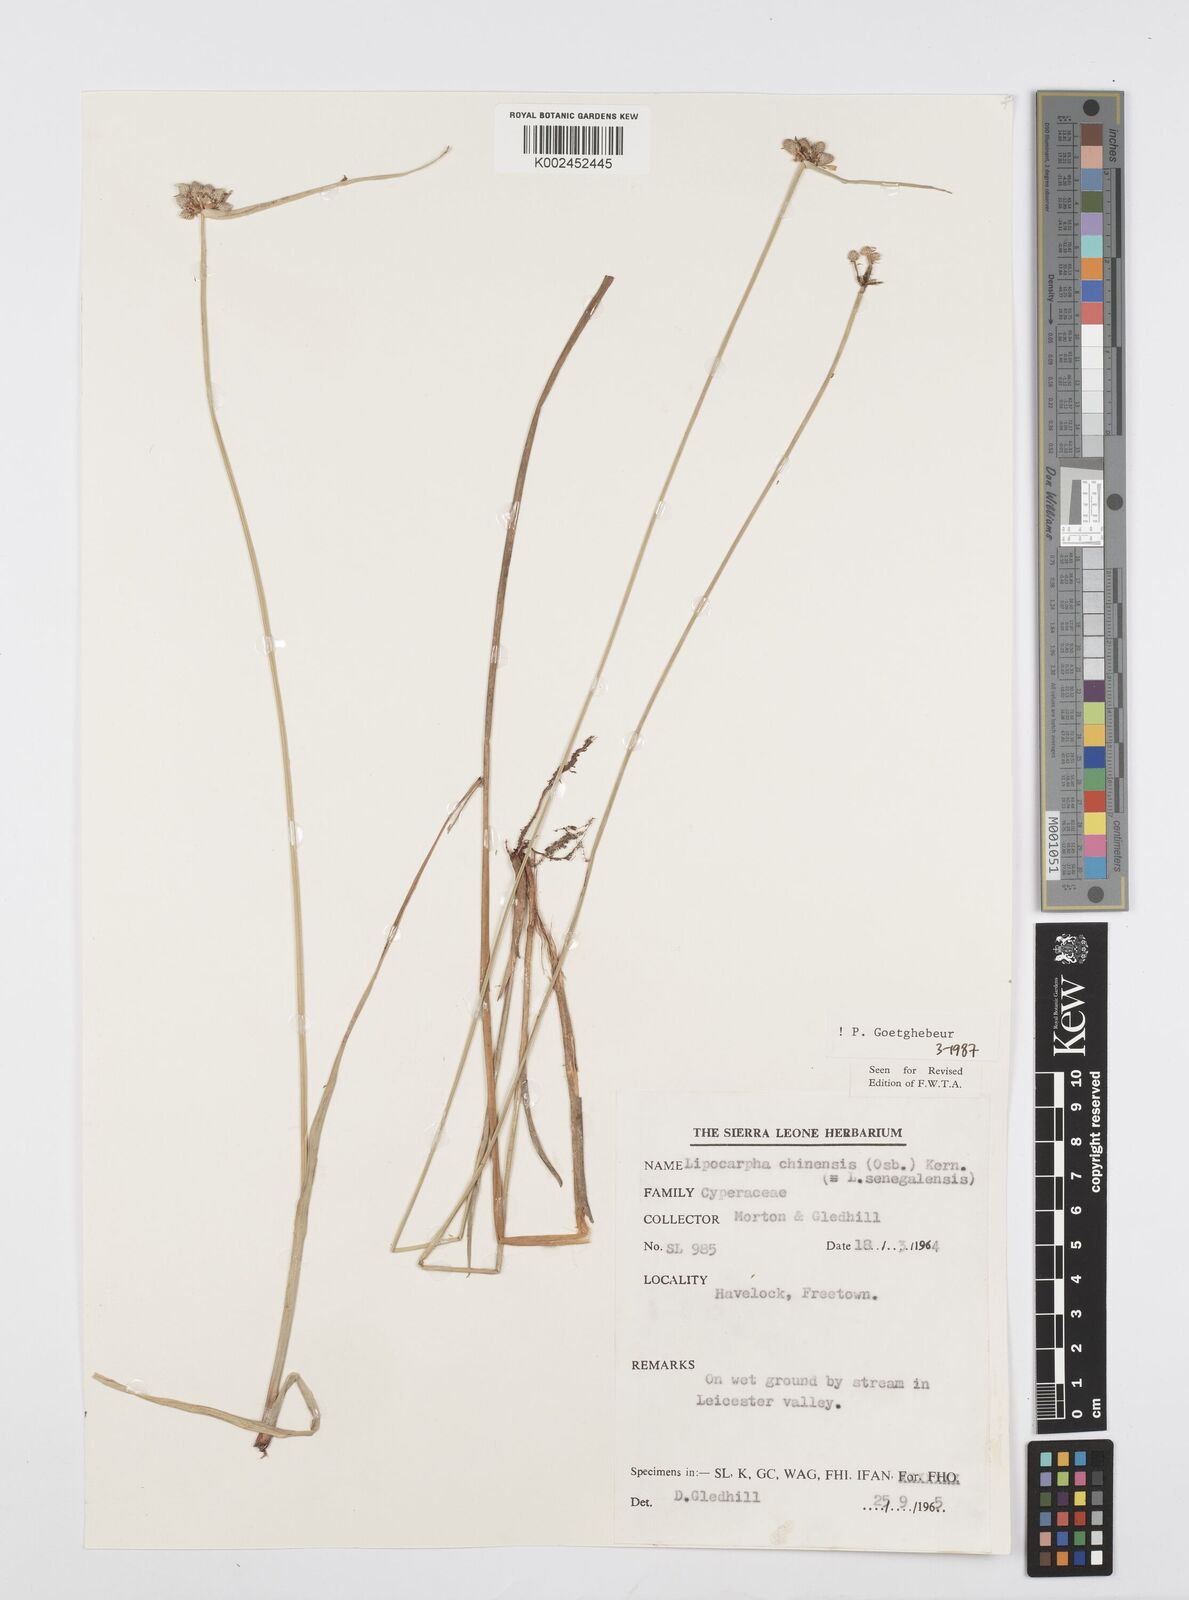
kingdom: Plantae
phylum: Tracheophyta
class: Liliopsida
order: Poales
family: Cyperaceae
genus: Cyperus
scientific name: Cyperus albescens
